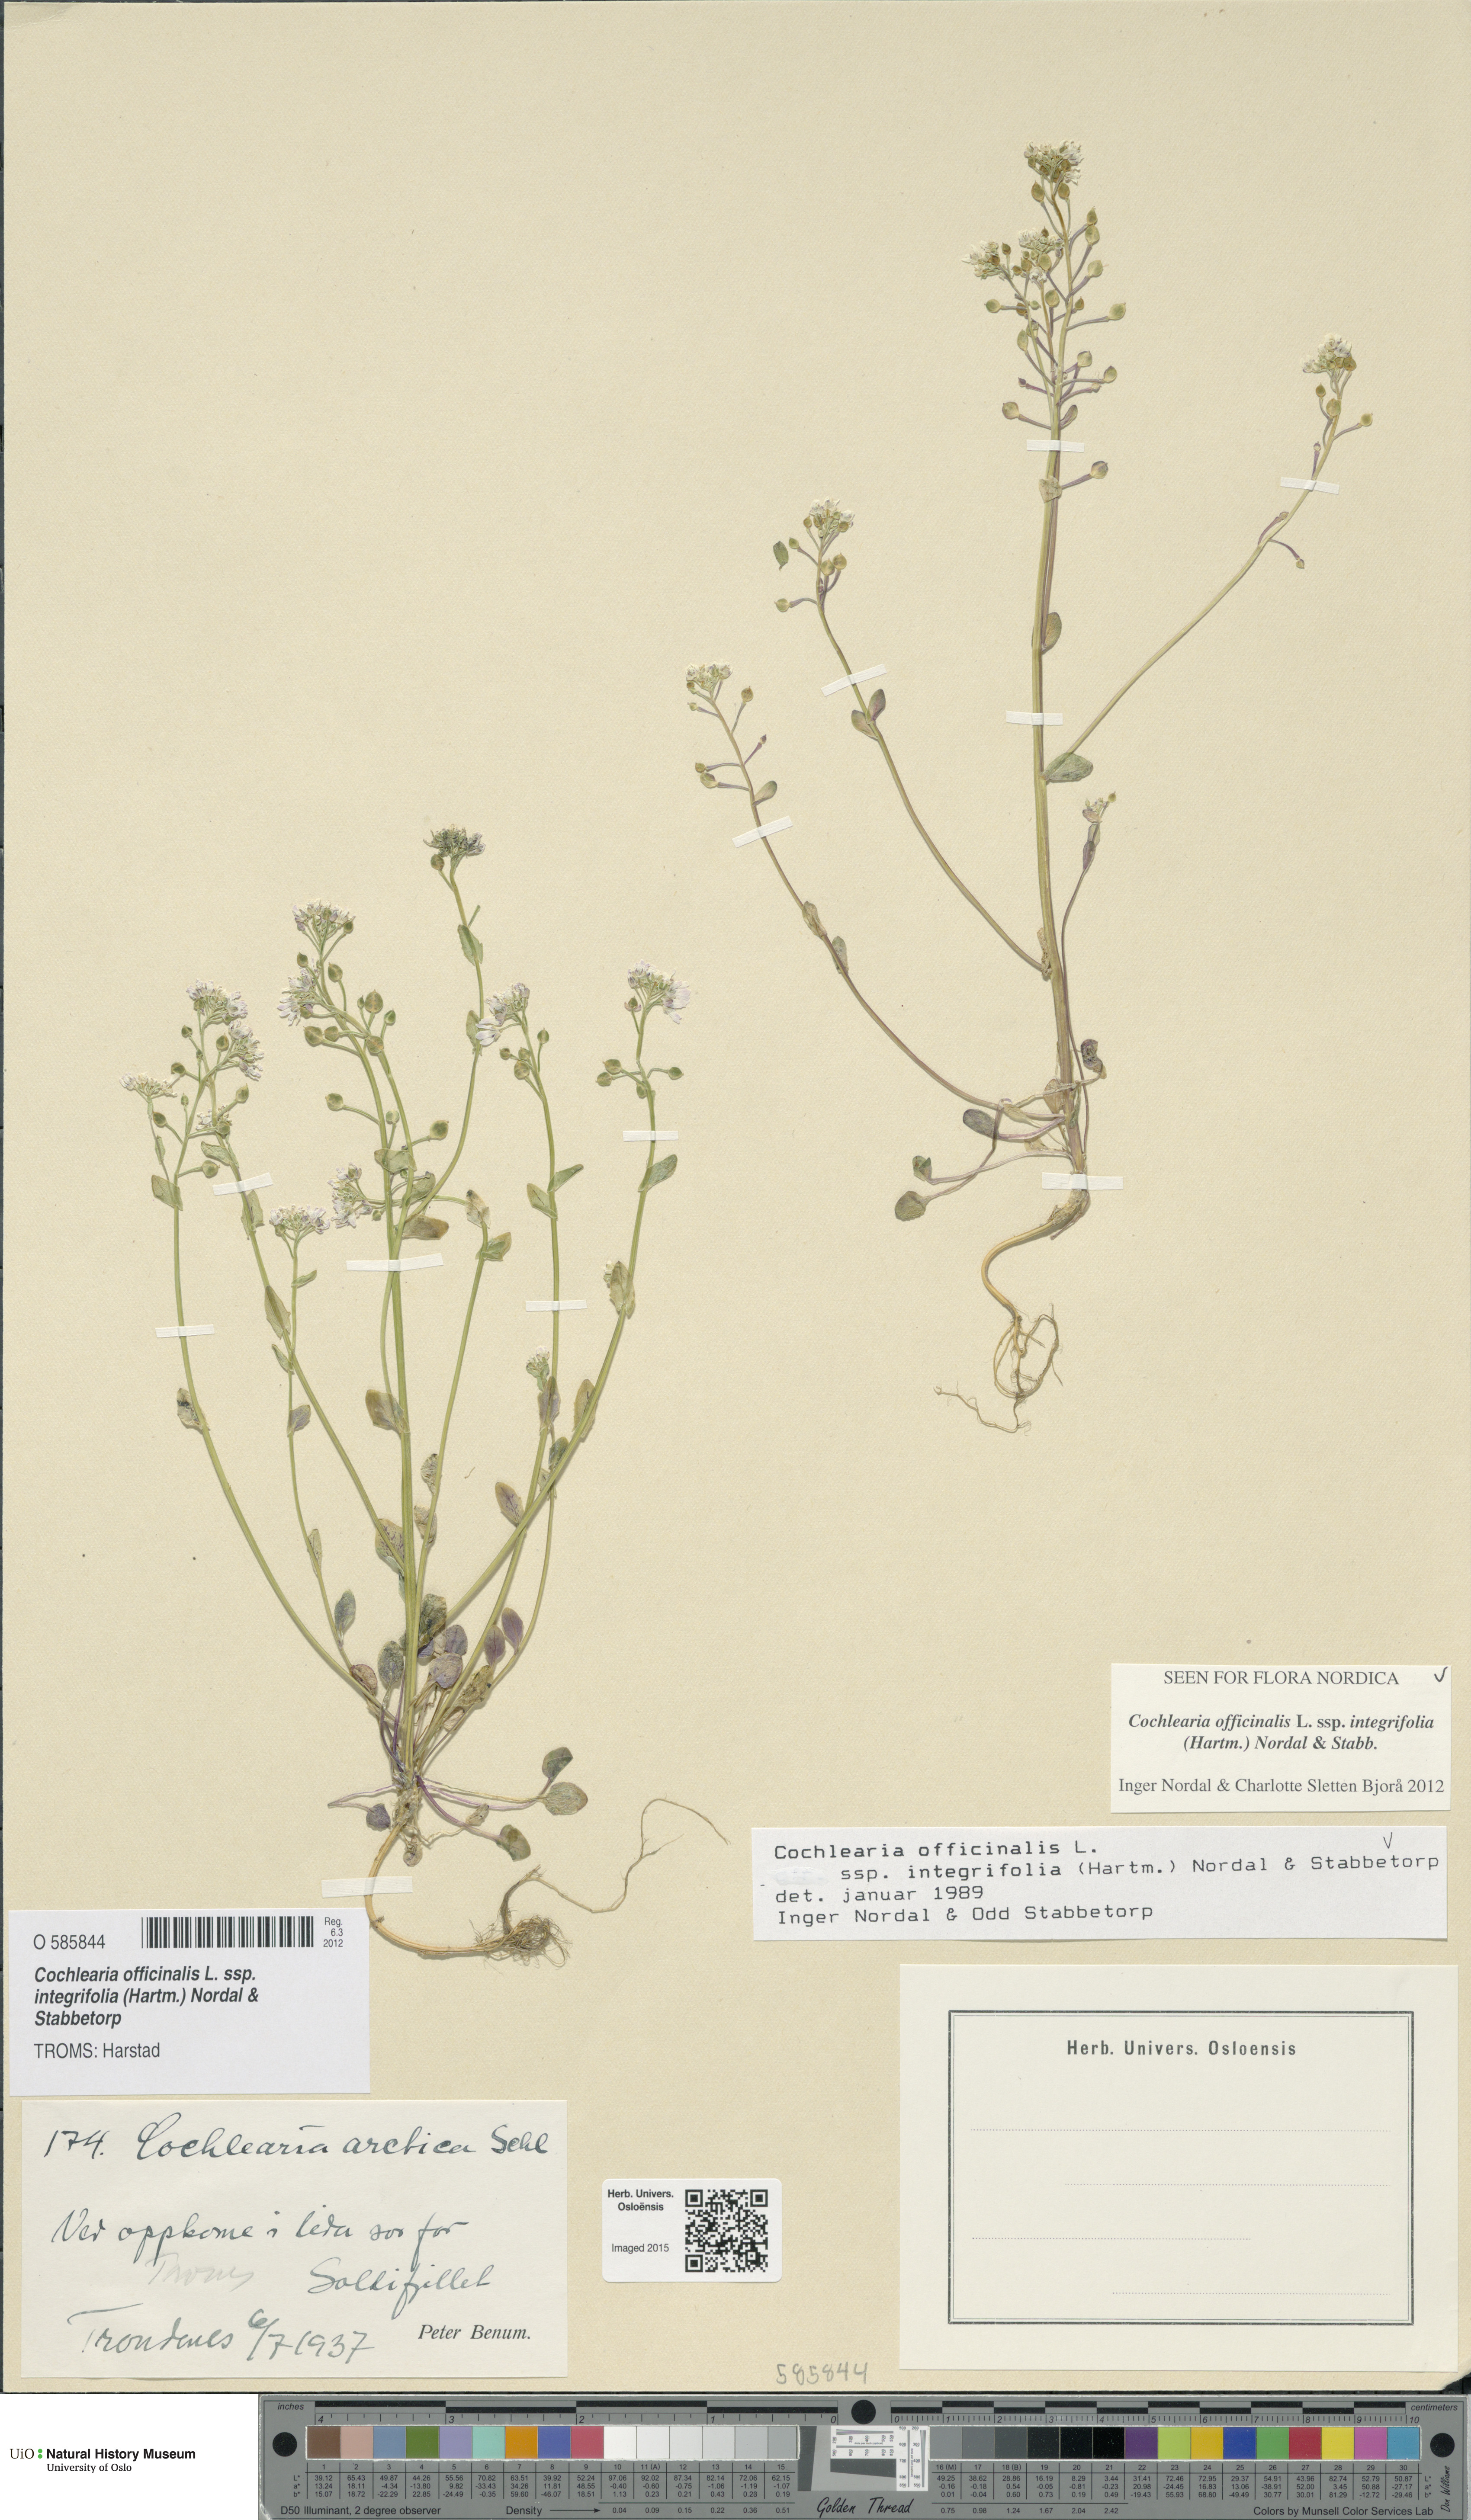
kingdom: Plantae
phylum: Tracheophyta
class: Magnoliopsida
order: Brassicales
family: Brassicaceae
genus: Cochlearia
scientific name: Cochlearia officinalis
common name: Scurvy-grass
